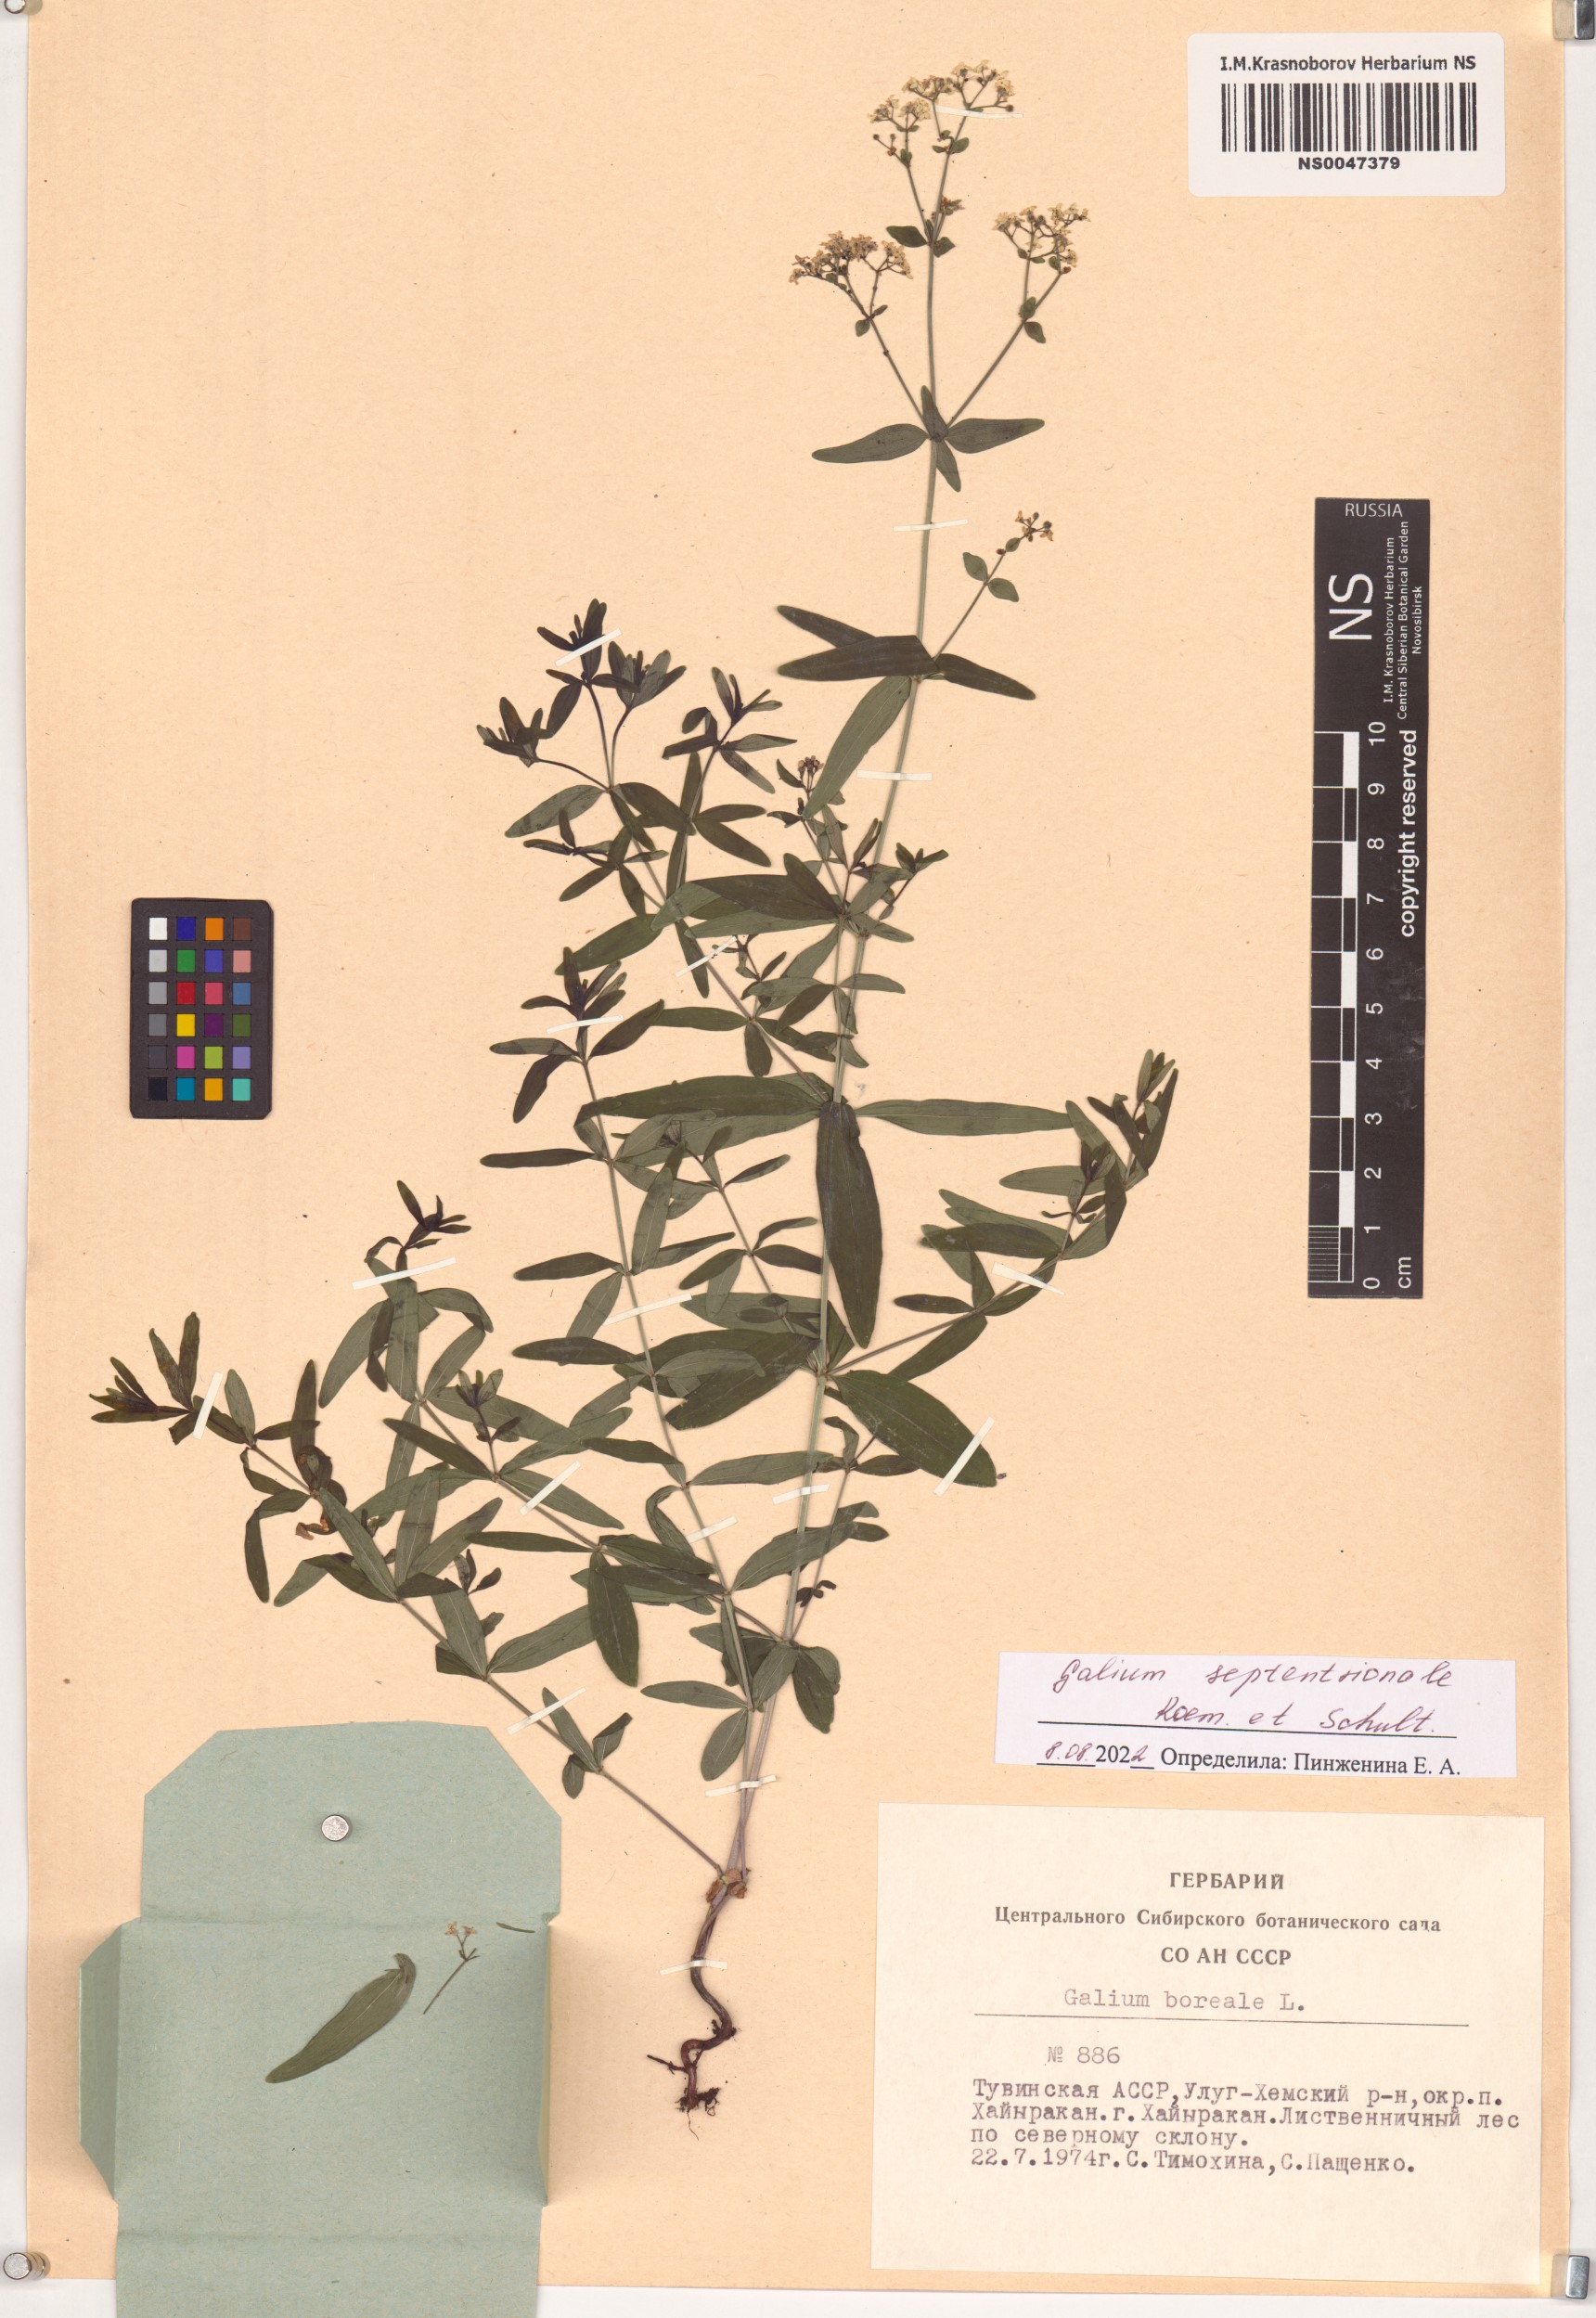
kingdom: Plantae
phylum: Tracheophyta
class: Magnoliopsida
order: Gentianales
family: Rubiaceae
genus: Galium
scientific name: Galium boreale
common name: Northern bedstraw
